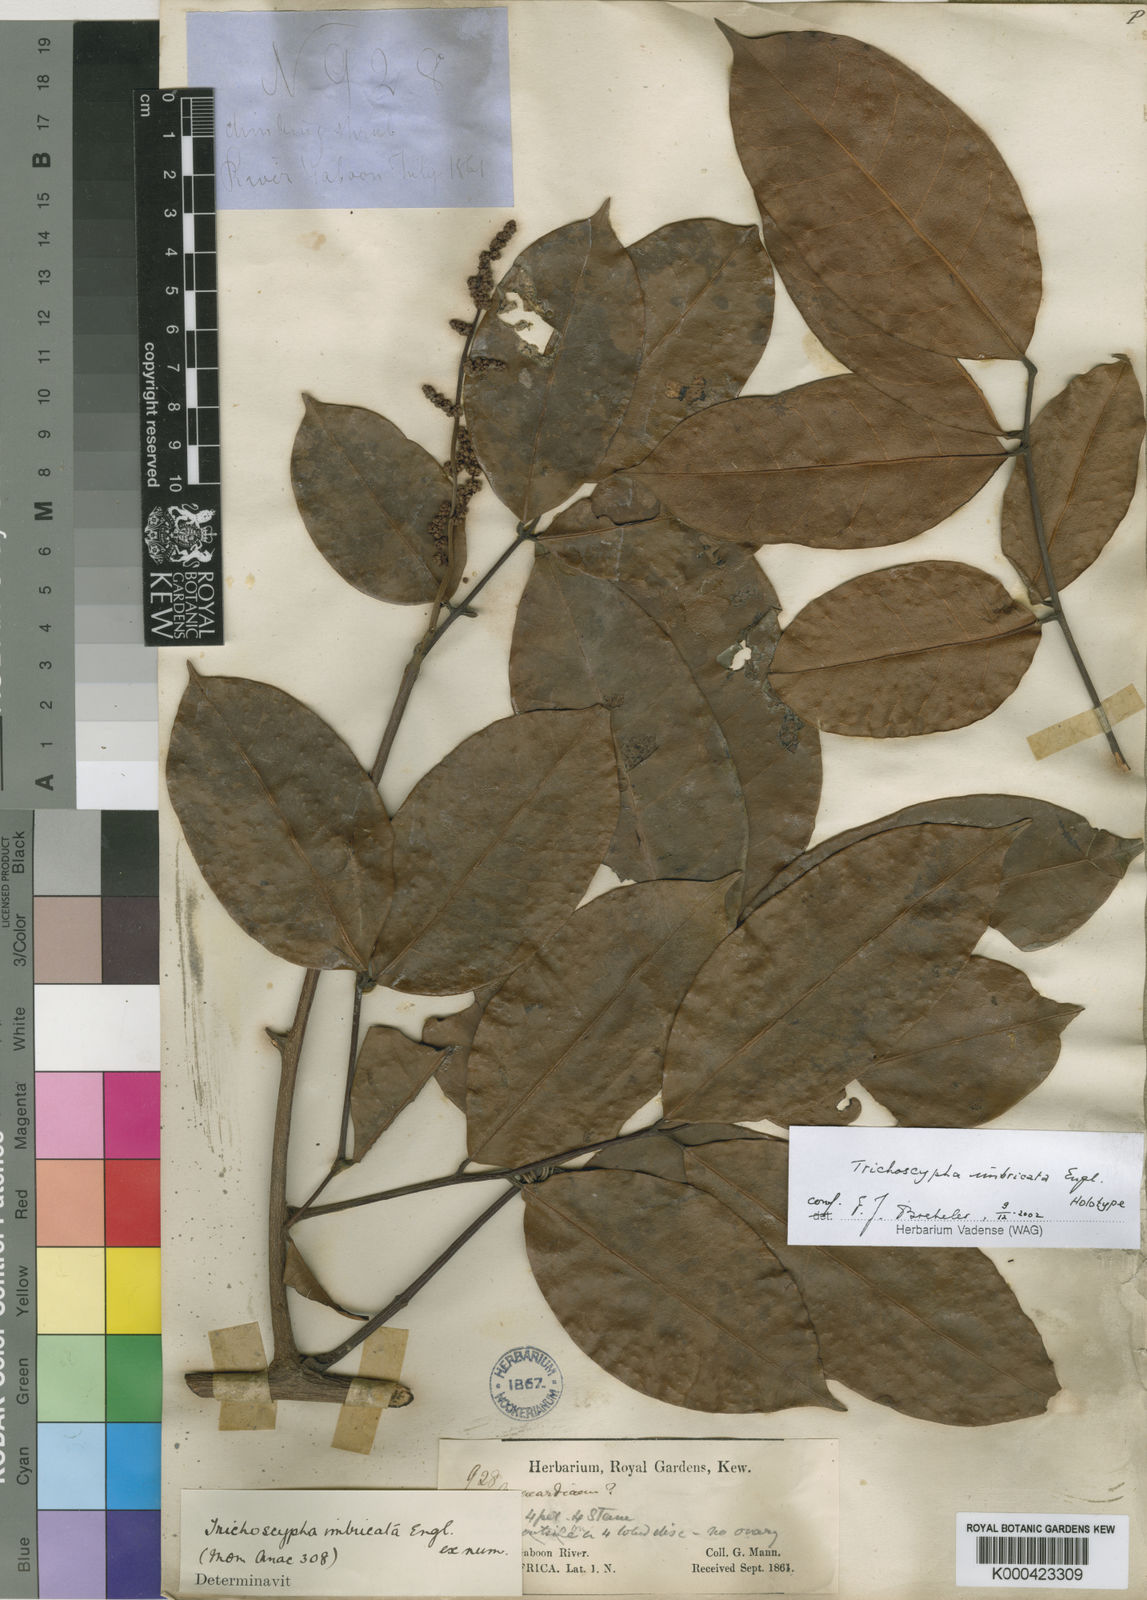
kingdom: Plantae
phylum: Tracheophyta
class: Magnoliopsida
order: Sapindales
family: Anacardiaceae
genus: Trichoscypha
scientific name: Trichoscypha imbricata
